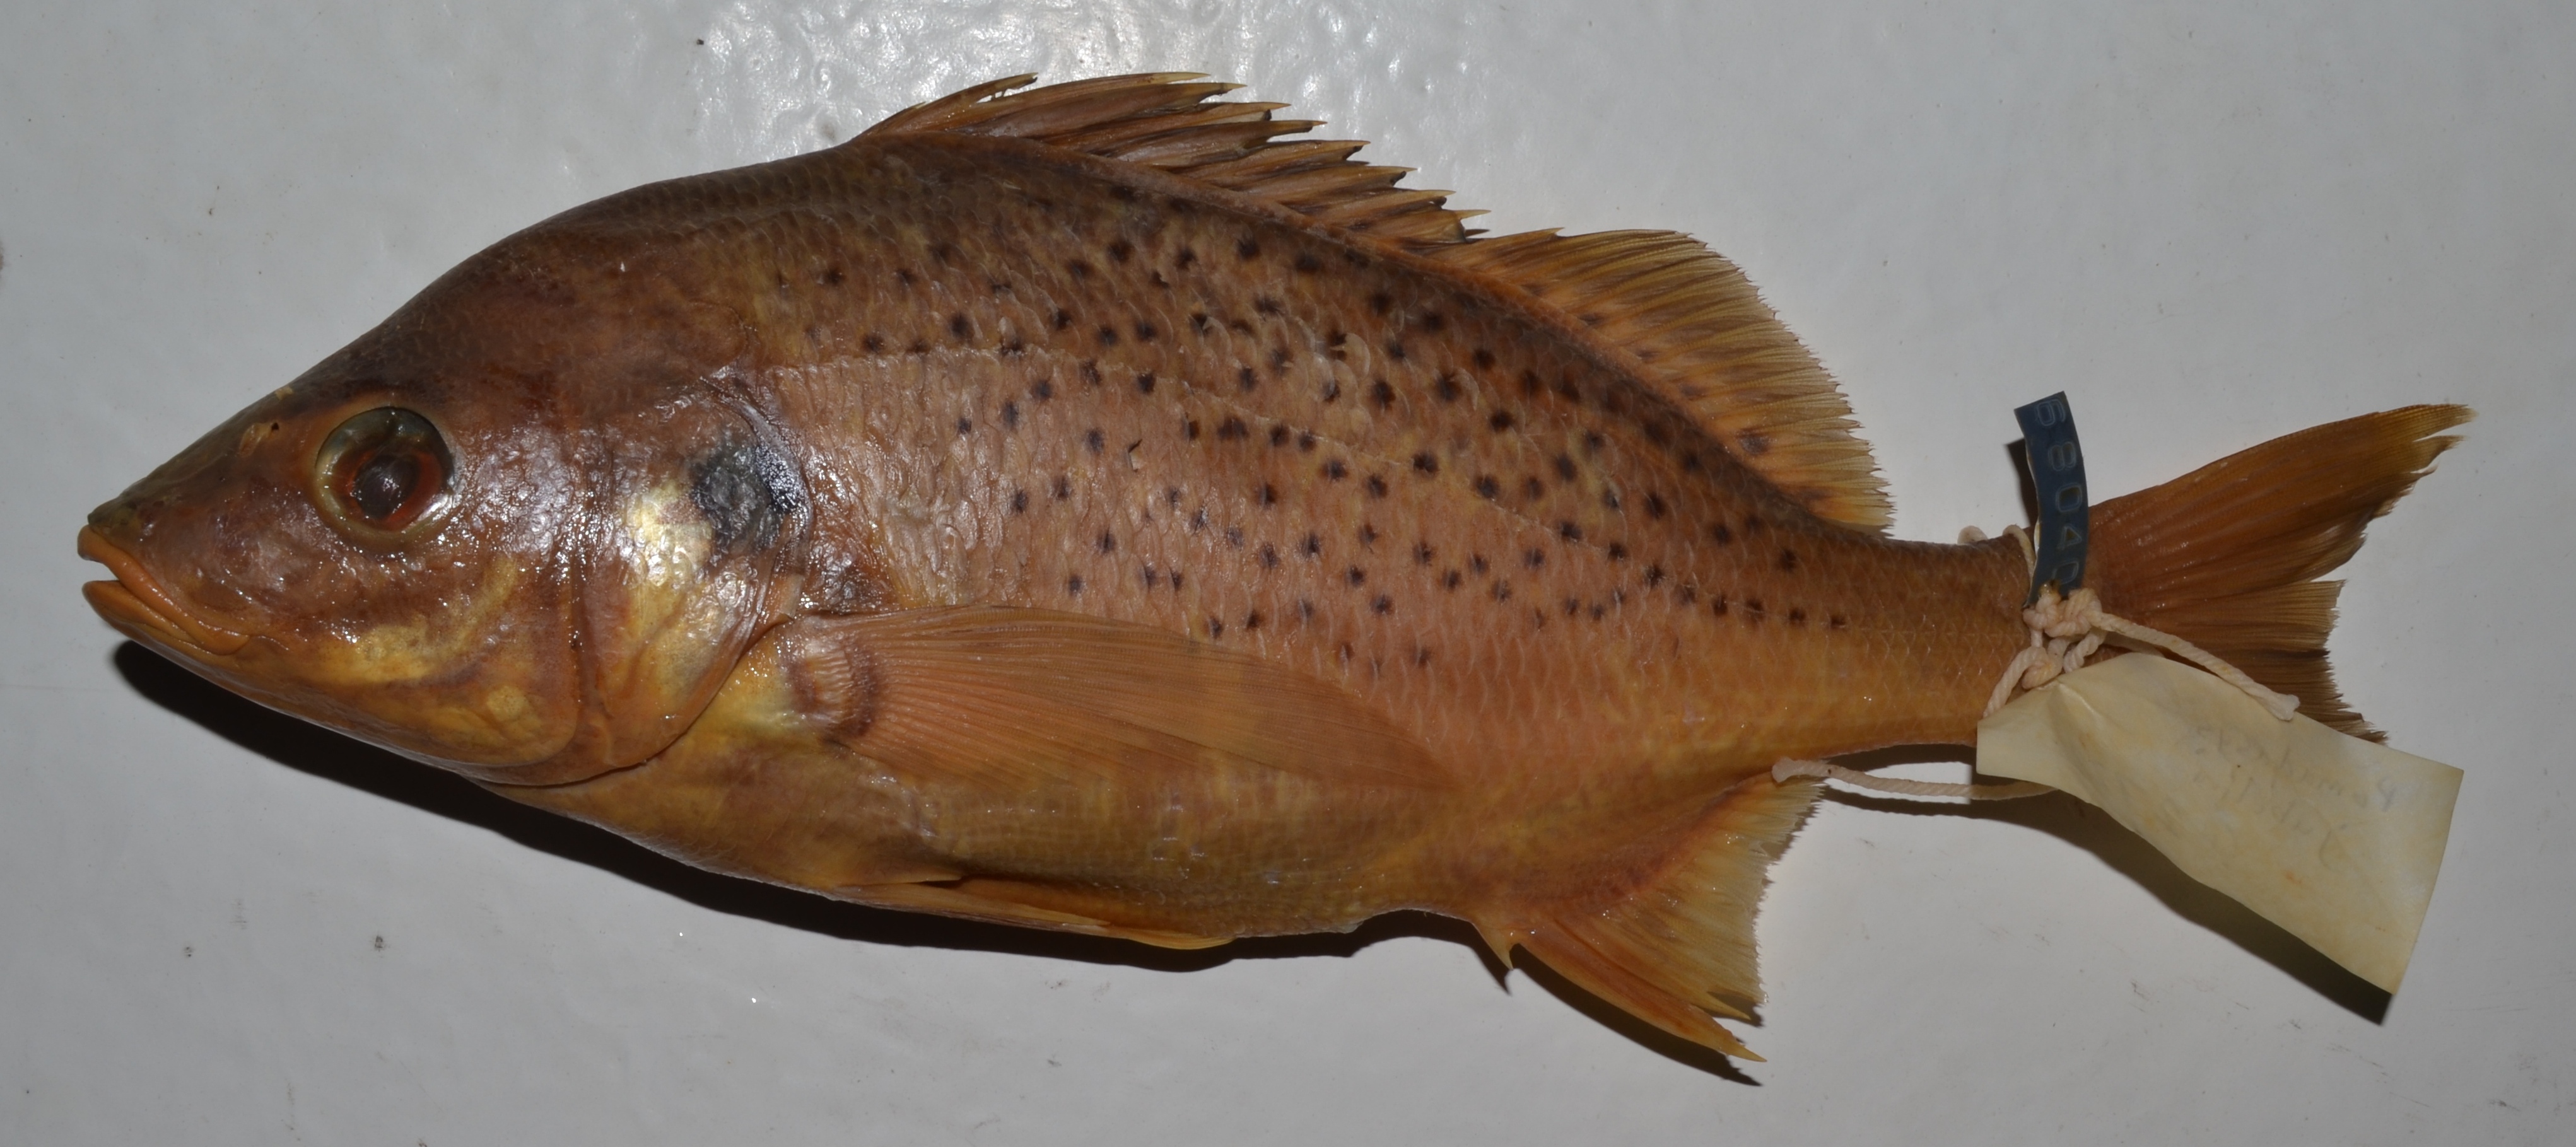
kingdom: Animalia
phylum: Chordata
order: Perciformes
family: Haemulidae
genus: Pomadasys
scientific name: Pomadasys jubelini
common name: Sompat grunt
